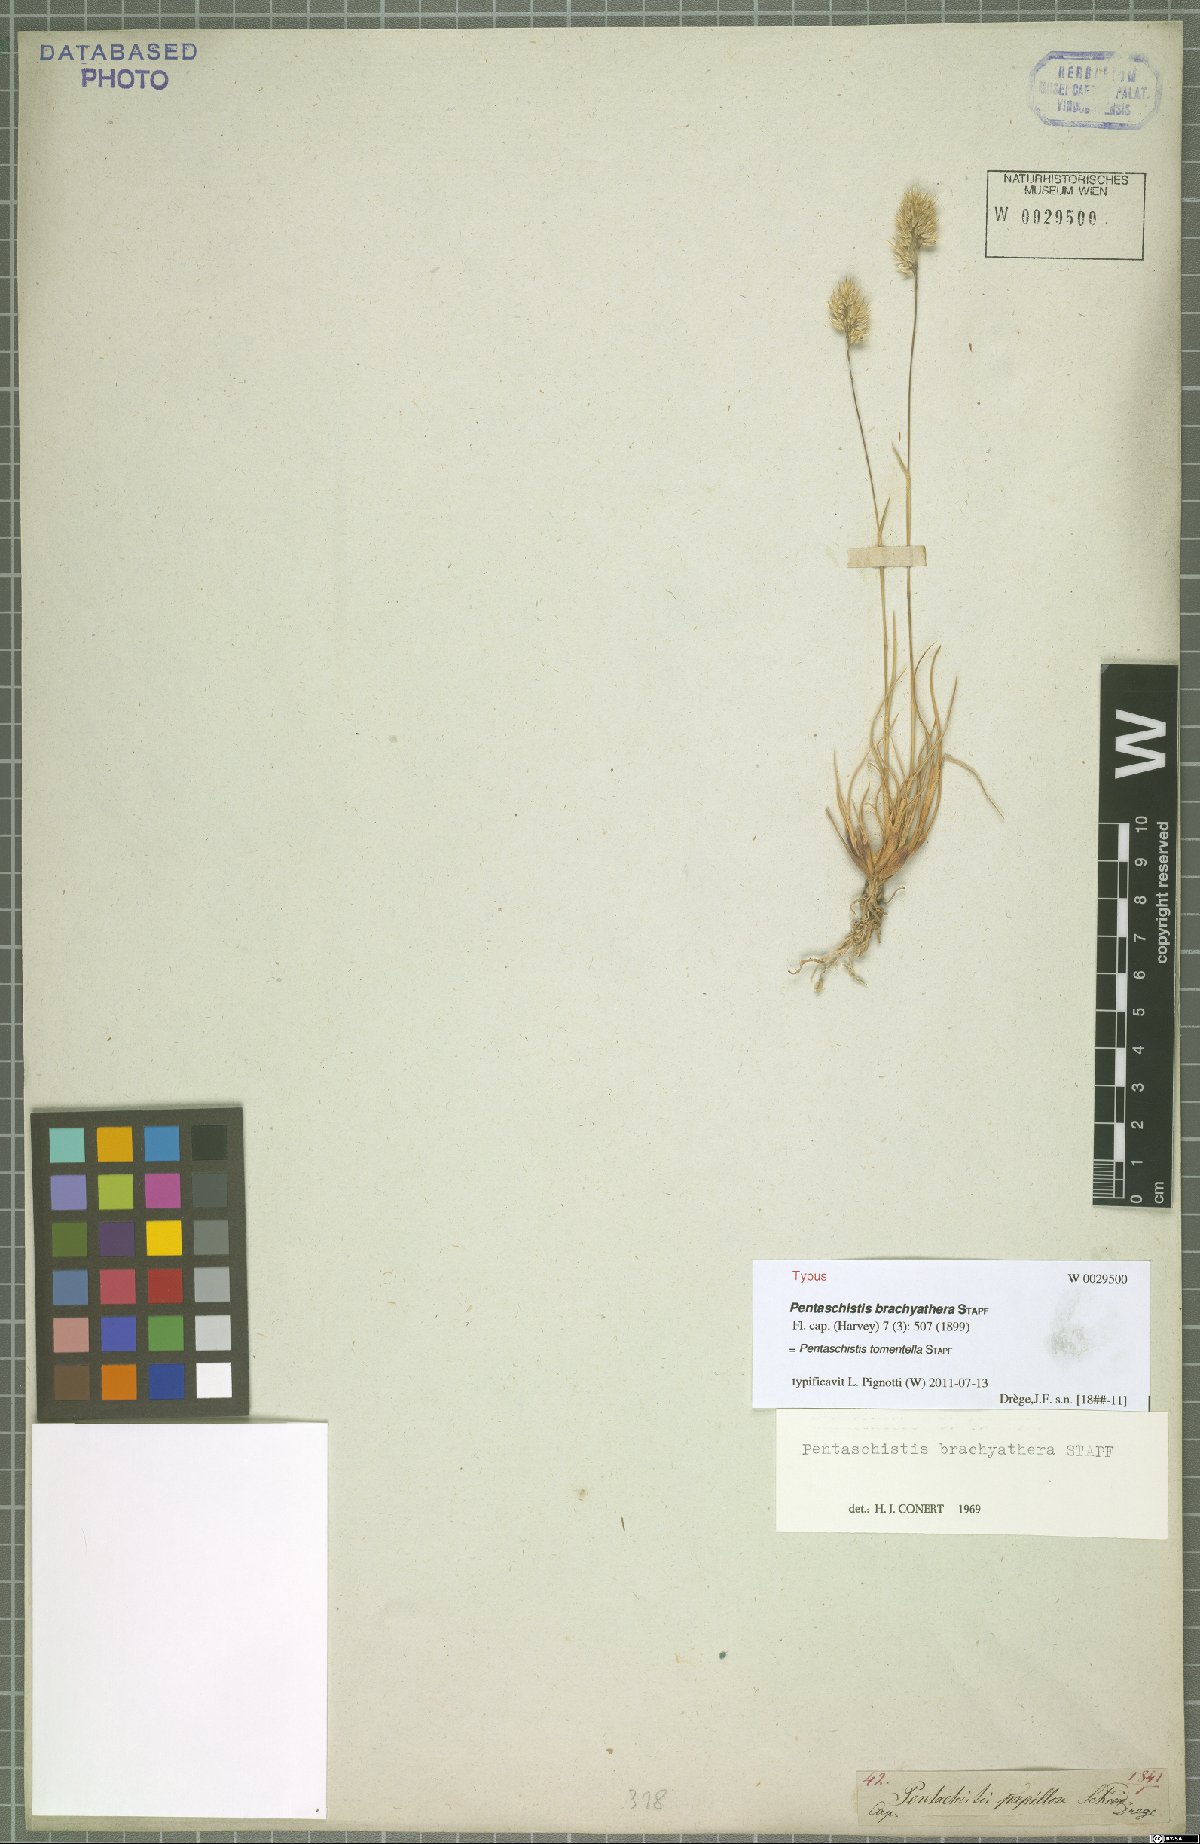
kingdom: Plantae
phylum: Tracheophyta
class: Liliopsida
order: Poales
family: Poaceae
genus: Pentameris
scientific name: Pentameris tomentella
